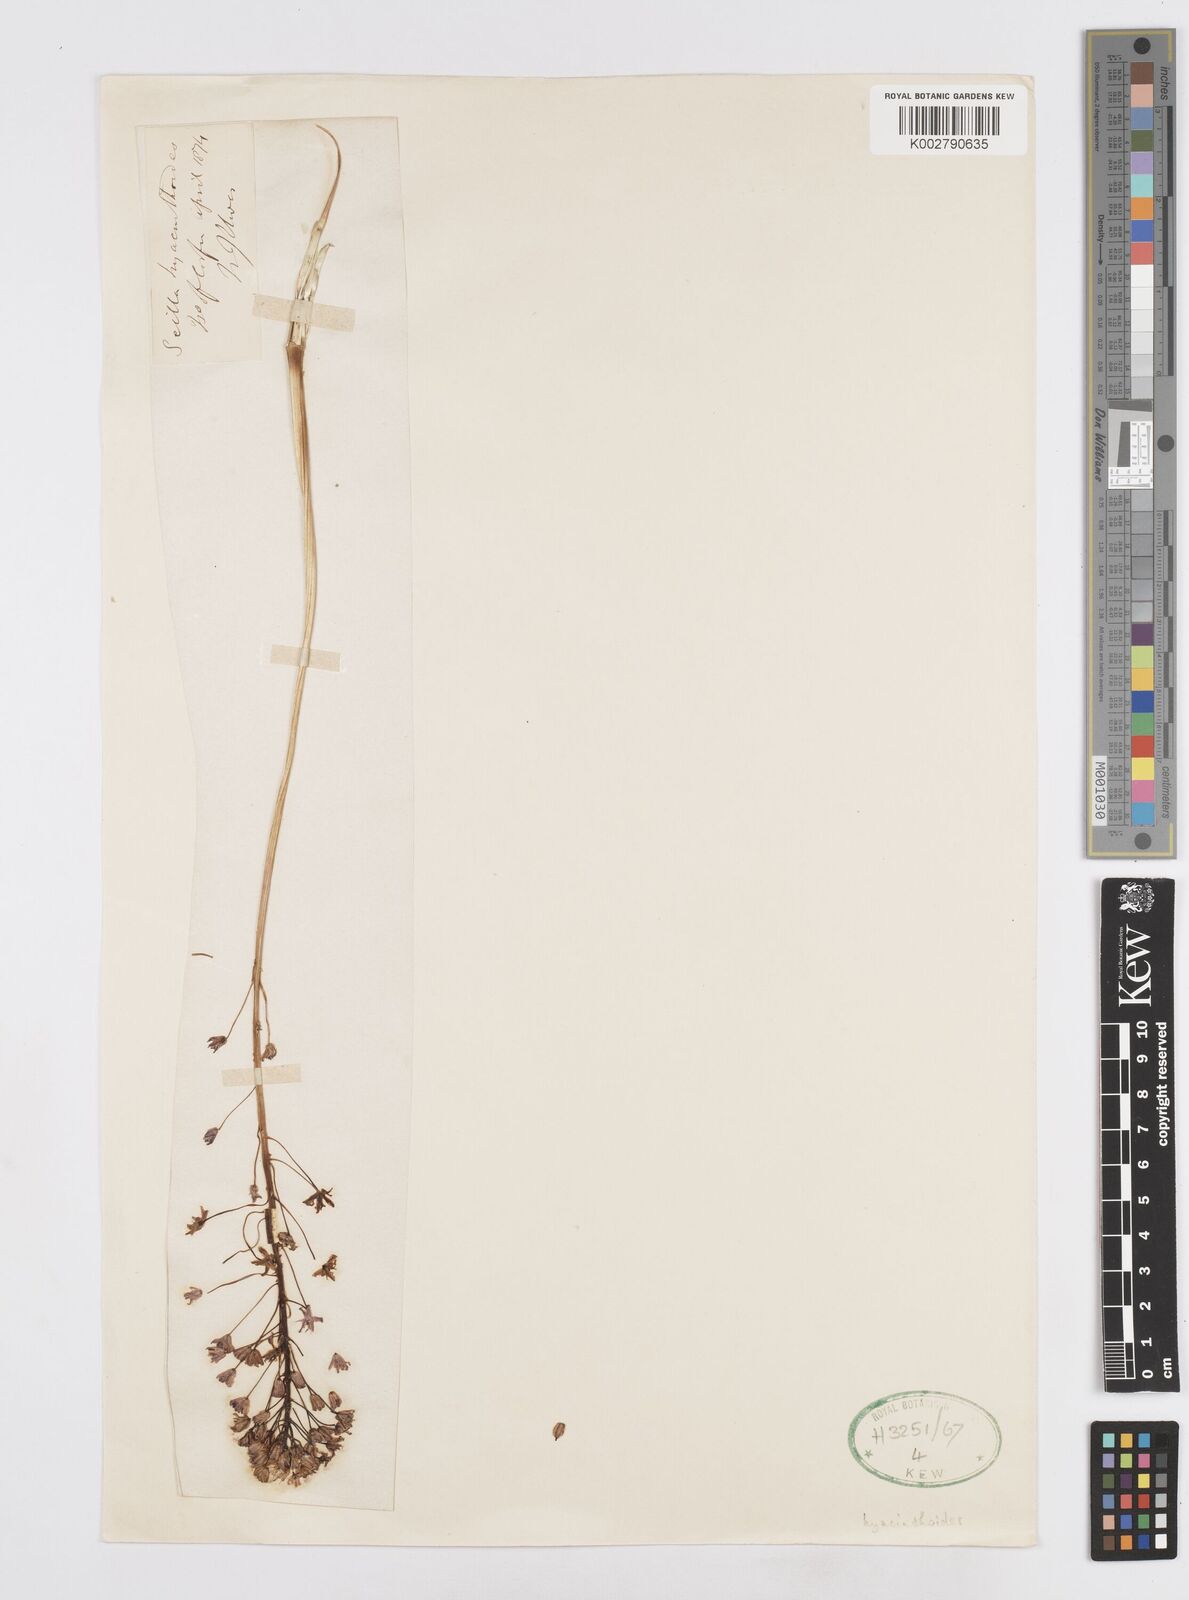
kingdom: Plantae
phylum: Tracheophyta
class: Liliopsida
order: Asparagales
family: Asparagaceae
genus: Scilla
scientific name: Scilla hyacinthoides
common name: Scilla
